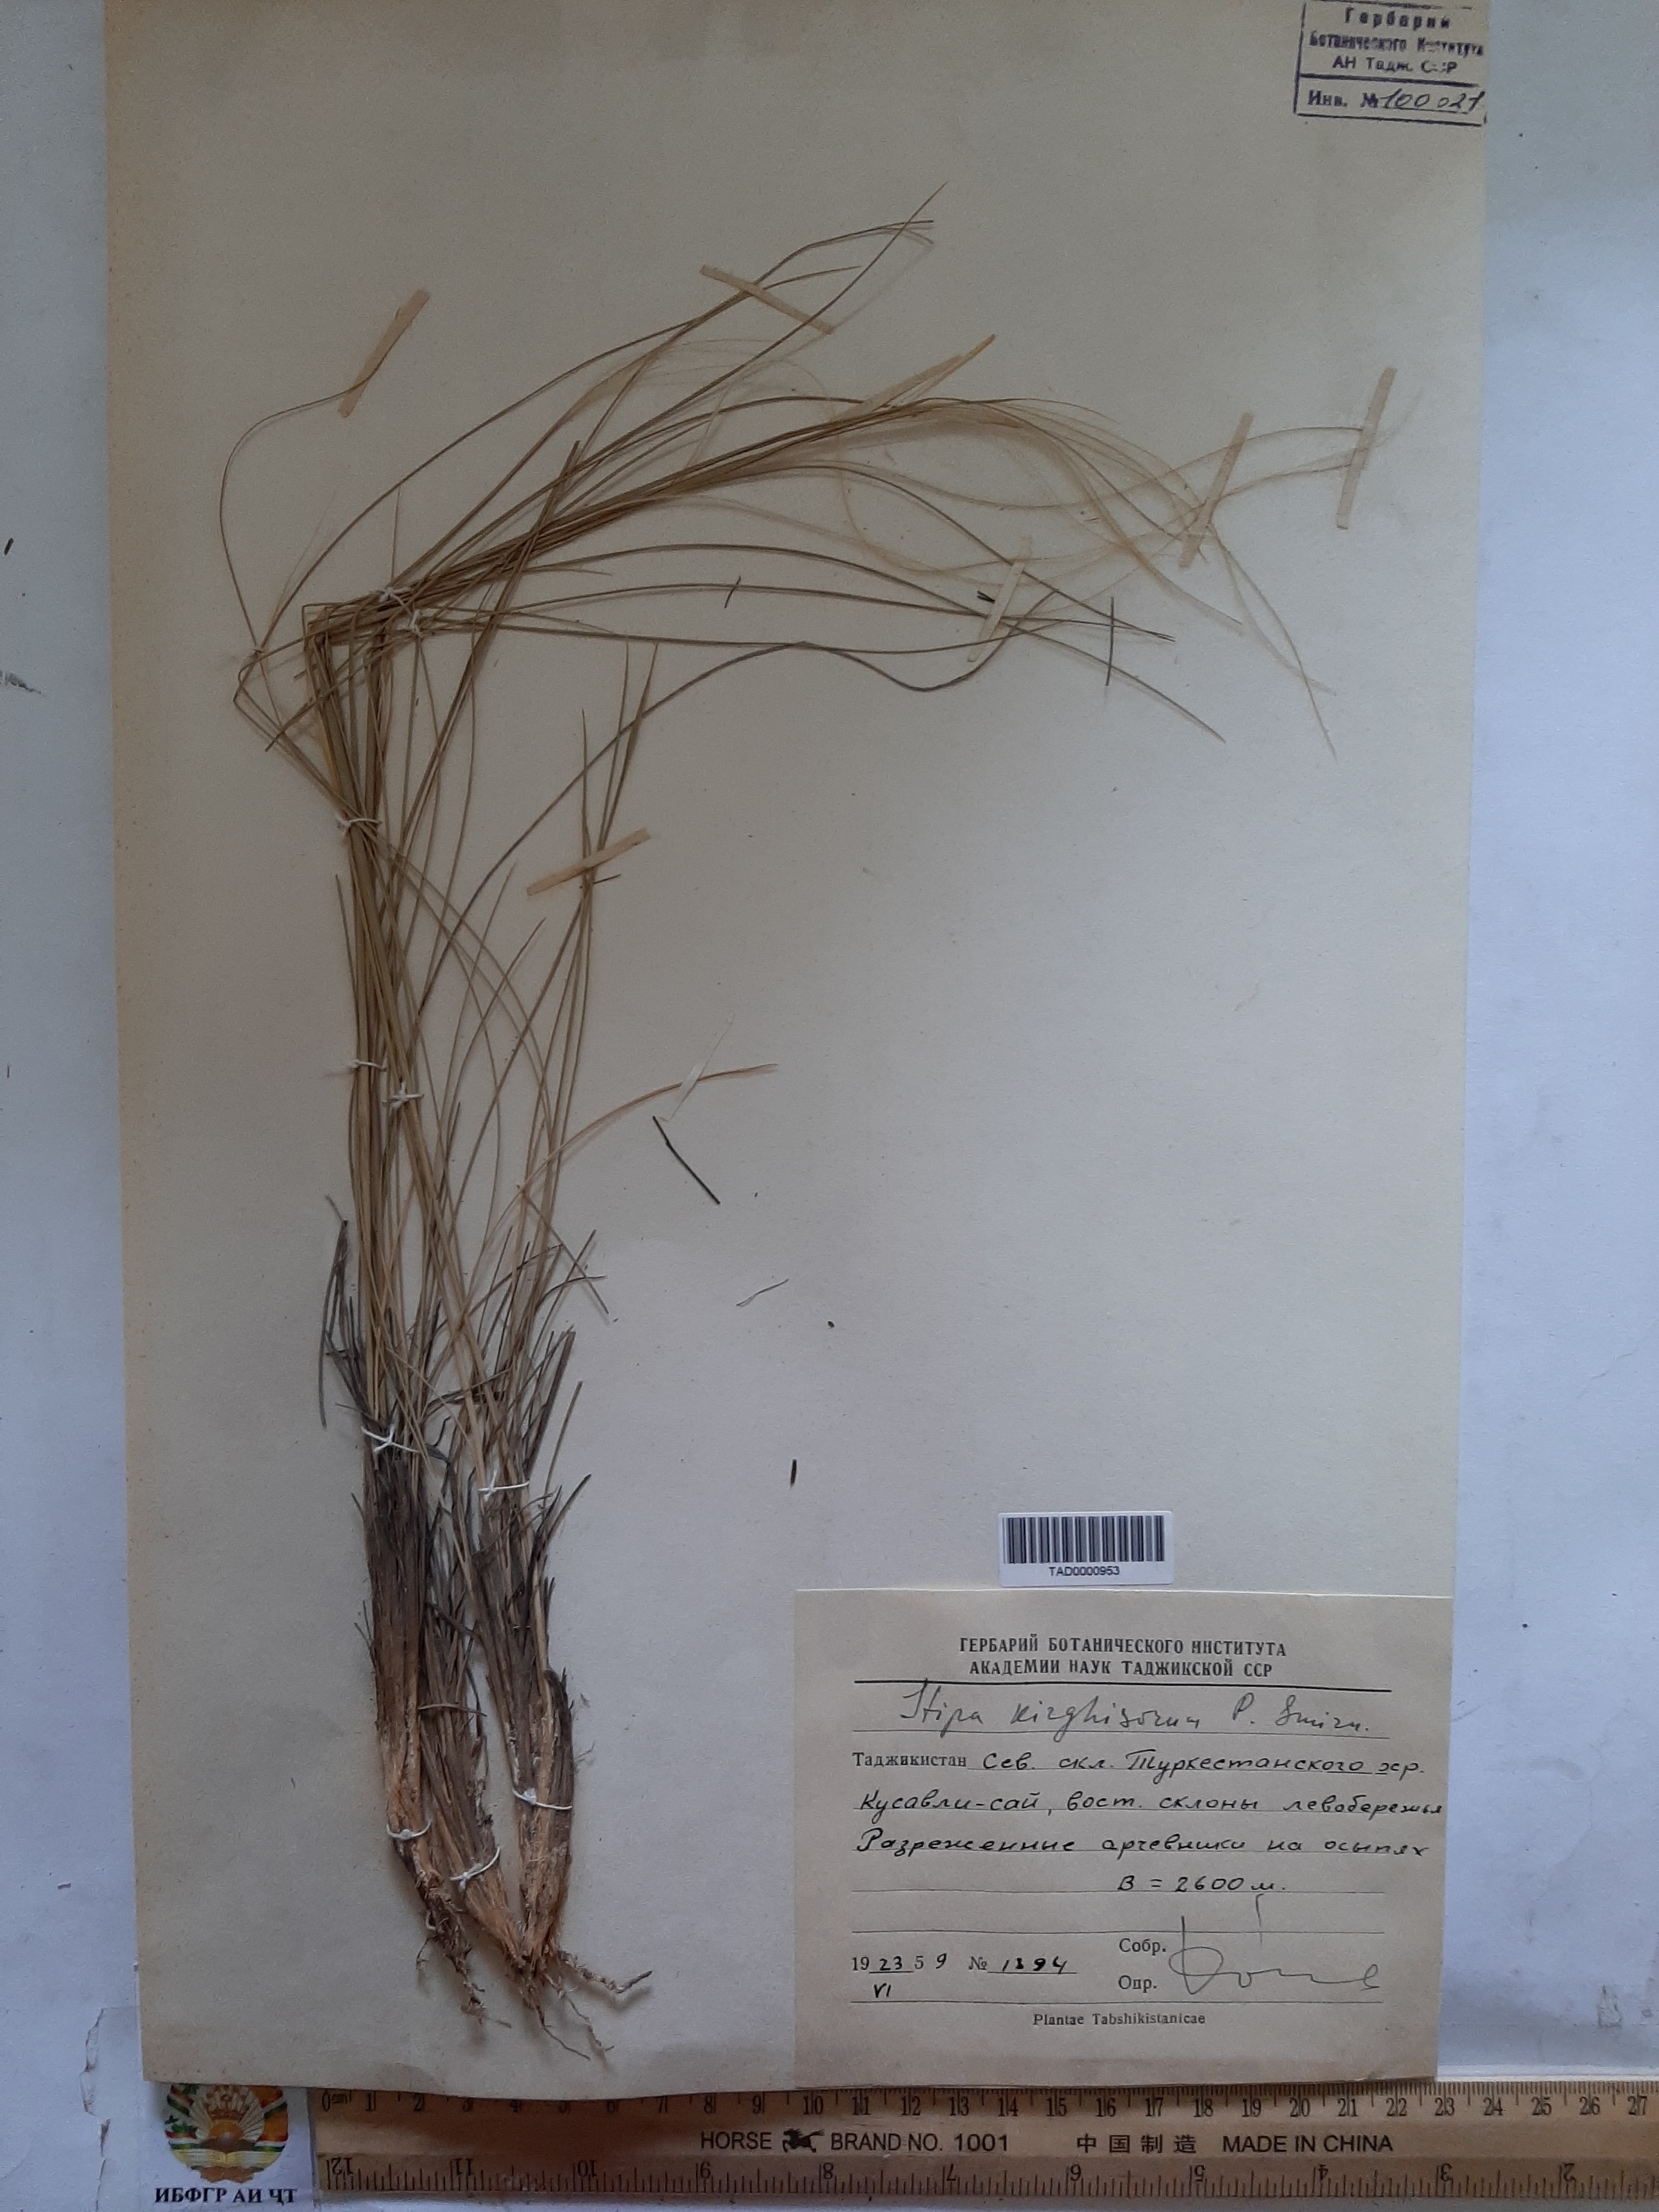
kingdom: Plantae
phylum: Tracheophyta
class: Liliopsida
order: Poales
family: Poaceae
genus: Stipa
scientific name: Stipa kirghisorum
